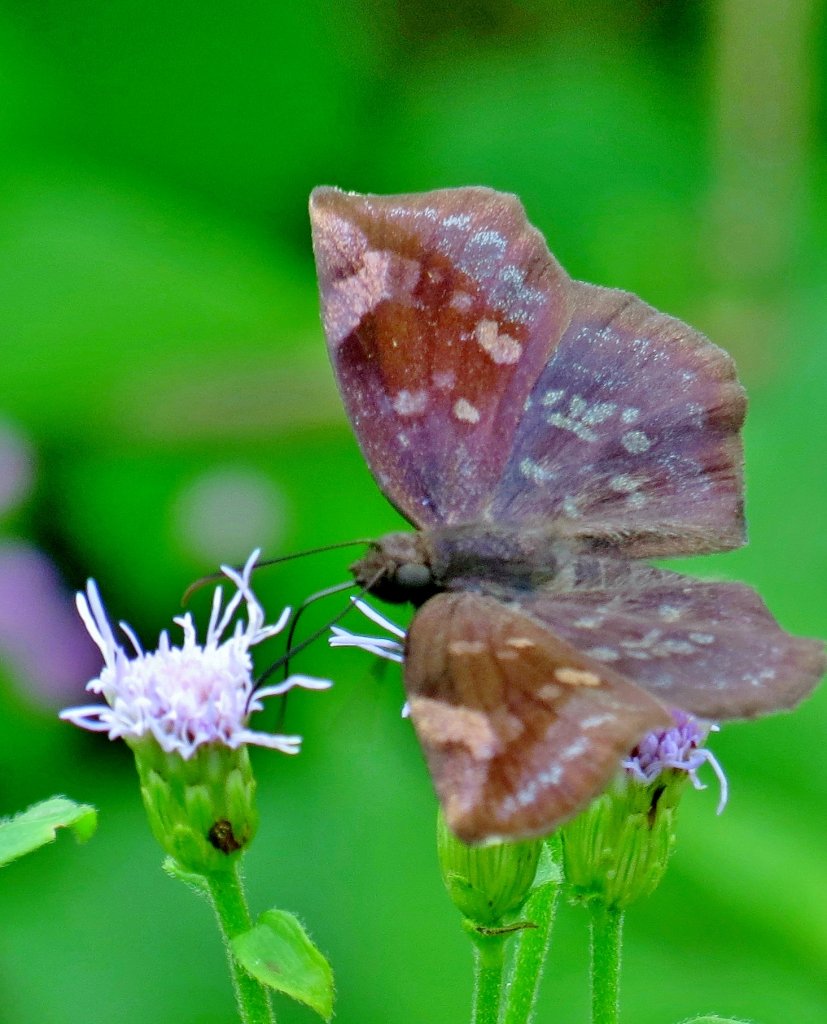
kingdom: Animalia
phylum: Arthropoda
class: Insecta
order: Lepidoptera
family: Hesperiidae
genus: Achlyodes
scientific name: Achlyodes thraso
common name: Sickle-winged Skipper
